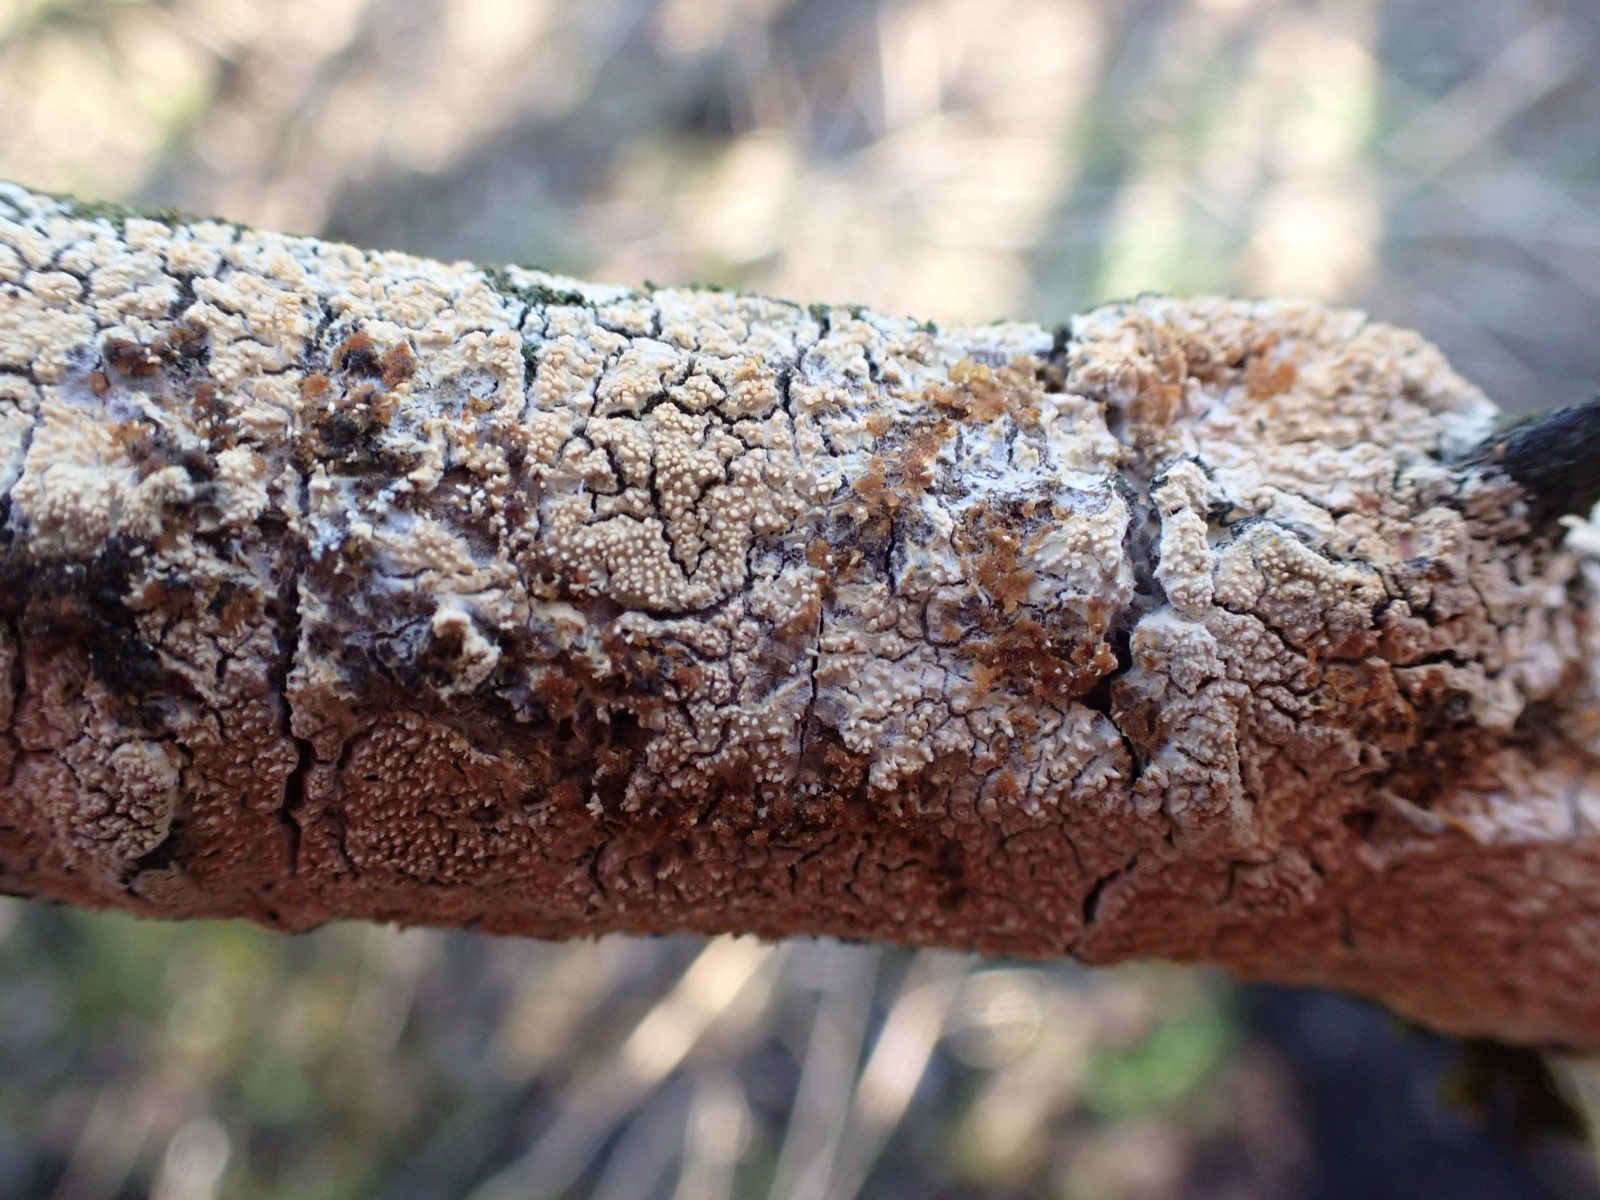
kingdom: Fungi
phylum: Basidiomycota
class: Agaricomycetes
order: Corticiales
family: Corticiaceae
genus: Lyomyces
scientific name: Lyomyces crustosus
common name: vortet hyldehinde
